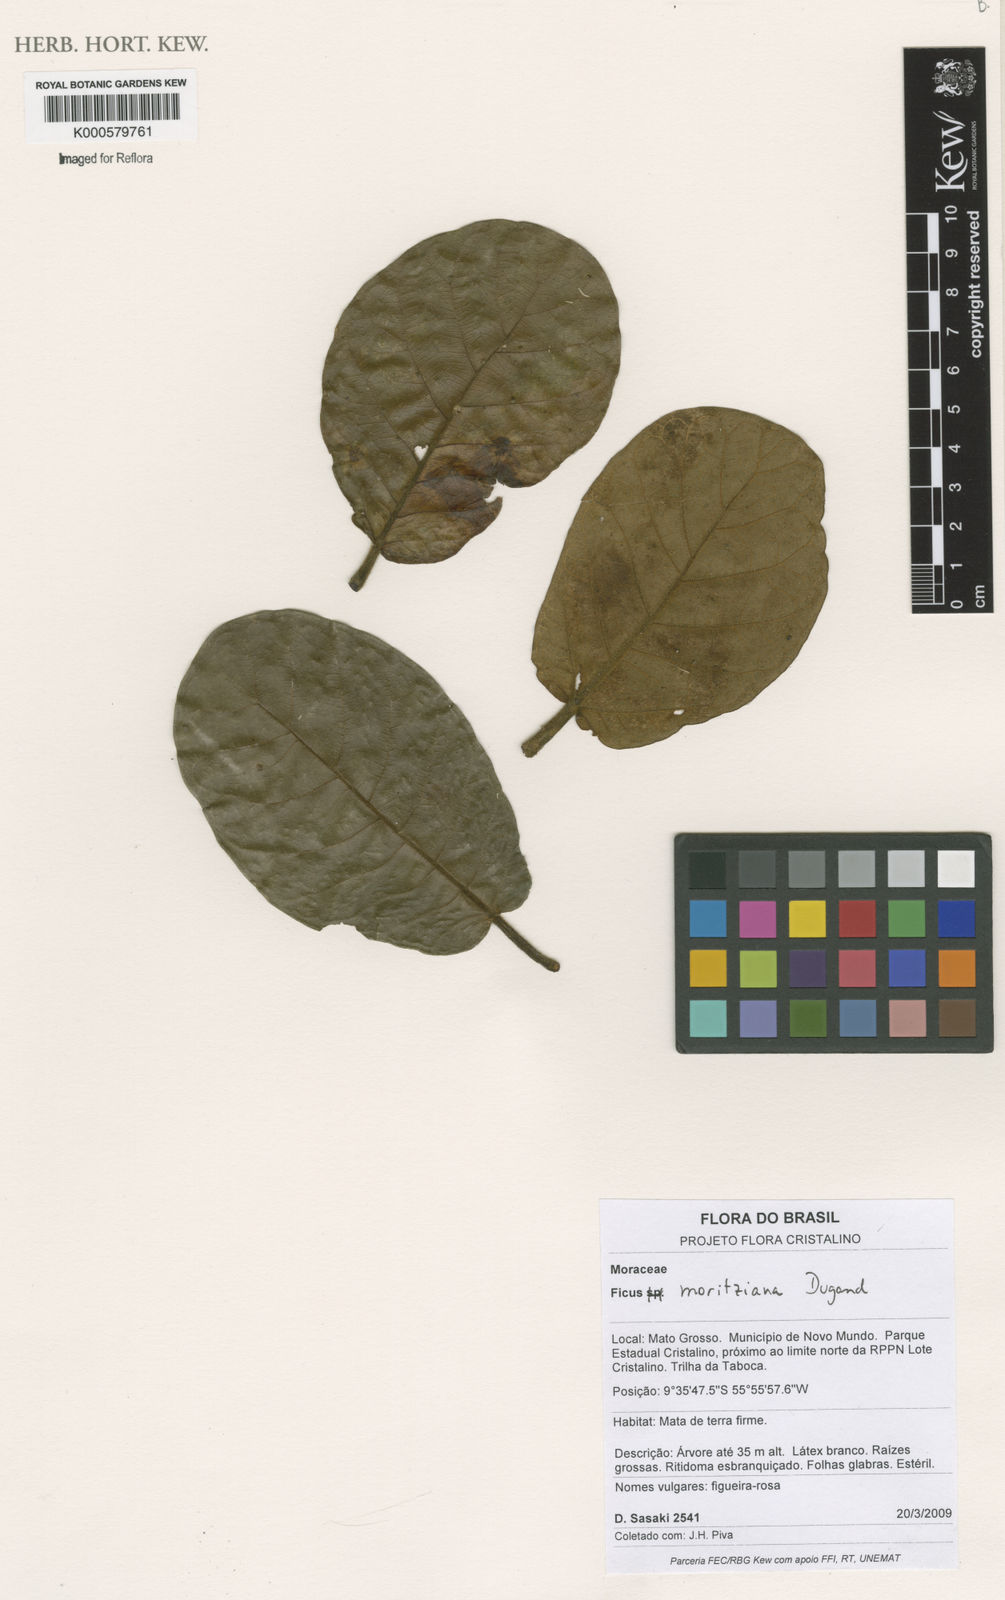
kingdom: Plantae
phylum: Tracheophyta
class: Magnoliopsida
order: Rosales
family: Moraceae
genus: Ficus
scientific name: Ficus matiziana
